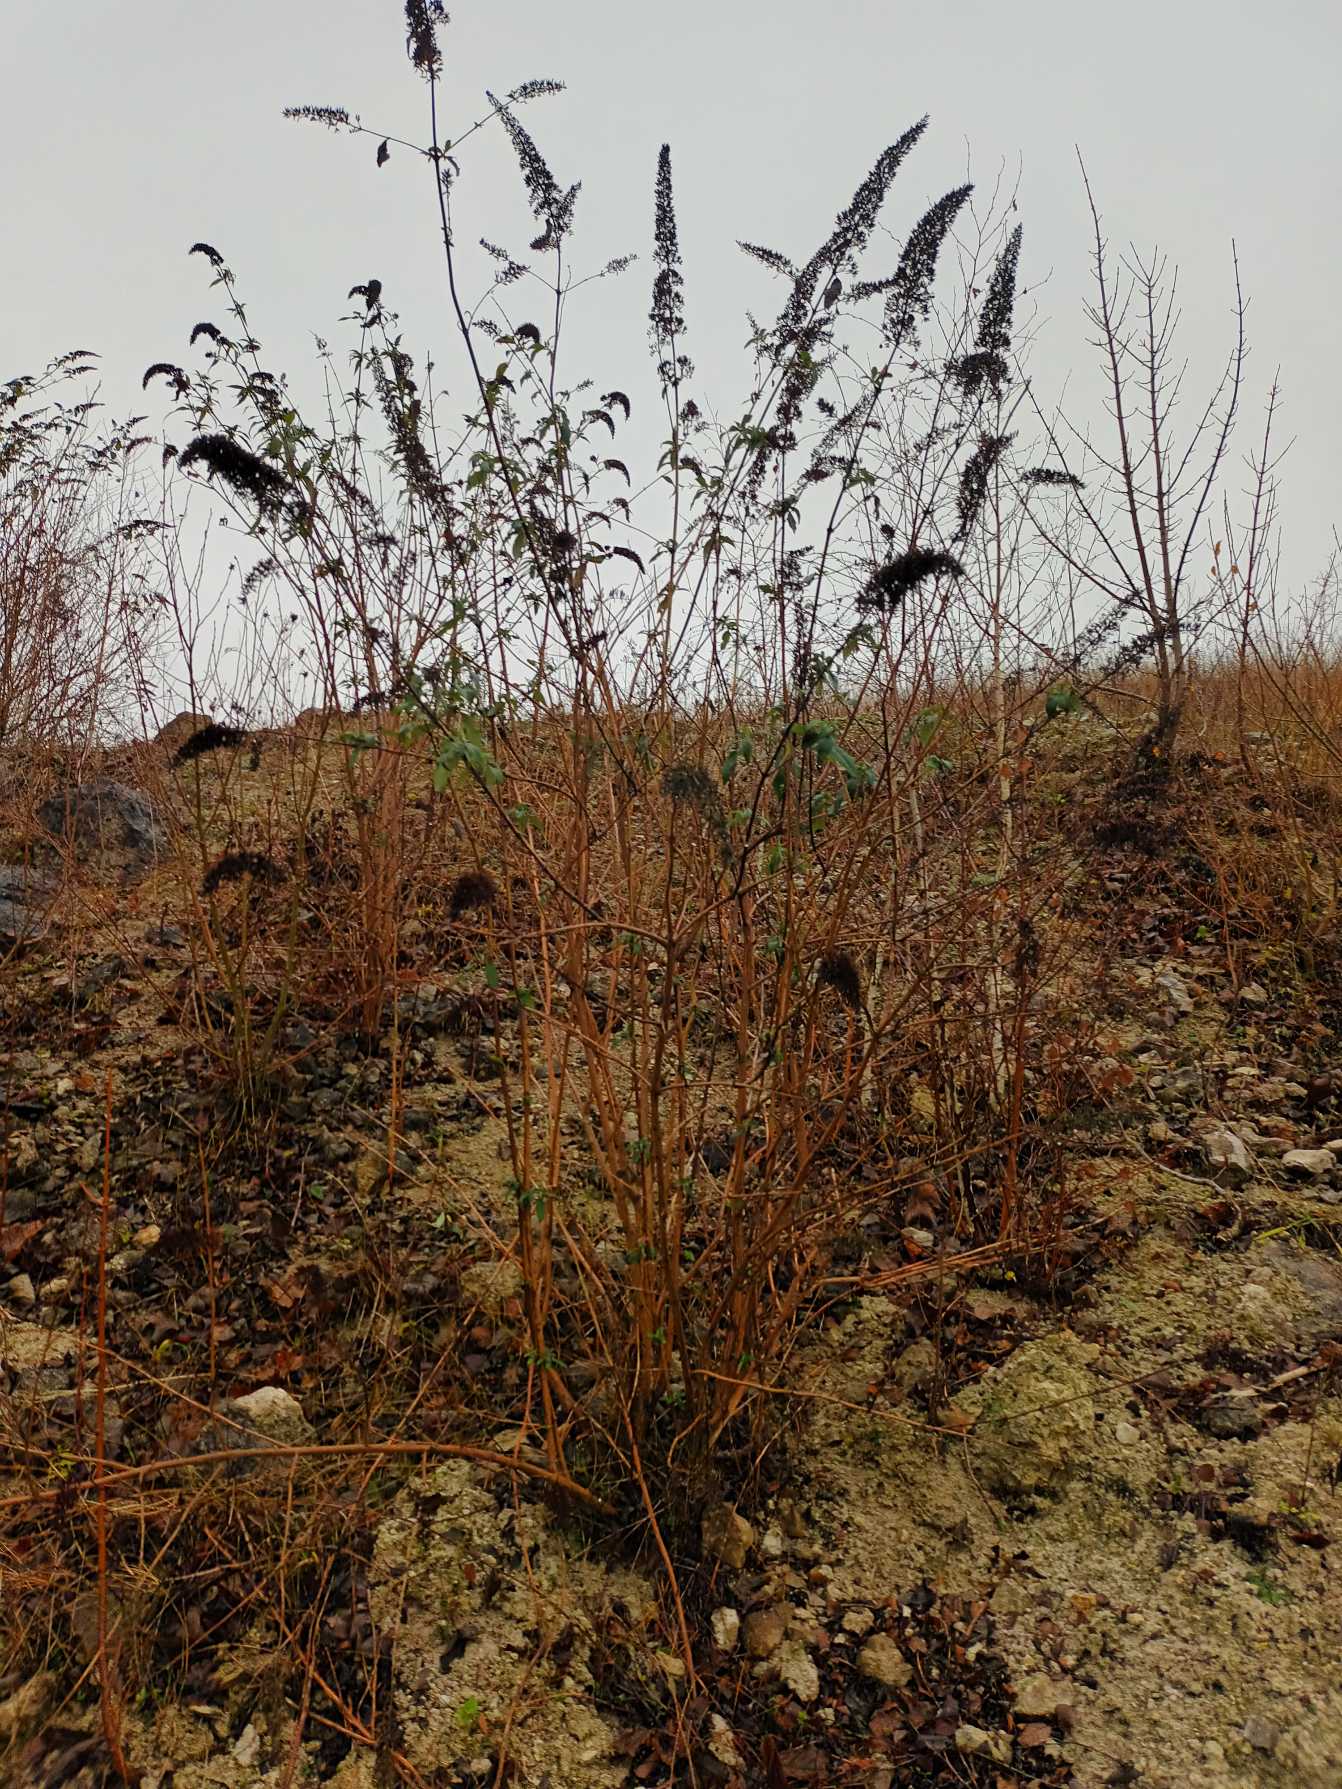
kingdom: Plantae
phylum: Tracheophyta
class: Magnoliopsida
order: Lamiales
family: Scrophulariaceae
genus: Buddleja
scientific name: Buddleja davidii
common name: Sommerfuglebusk
